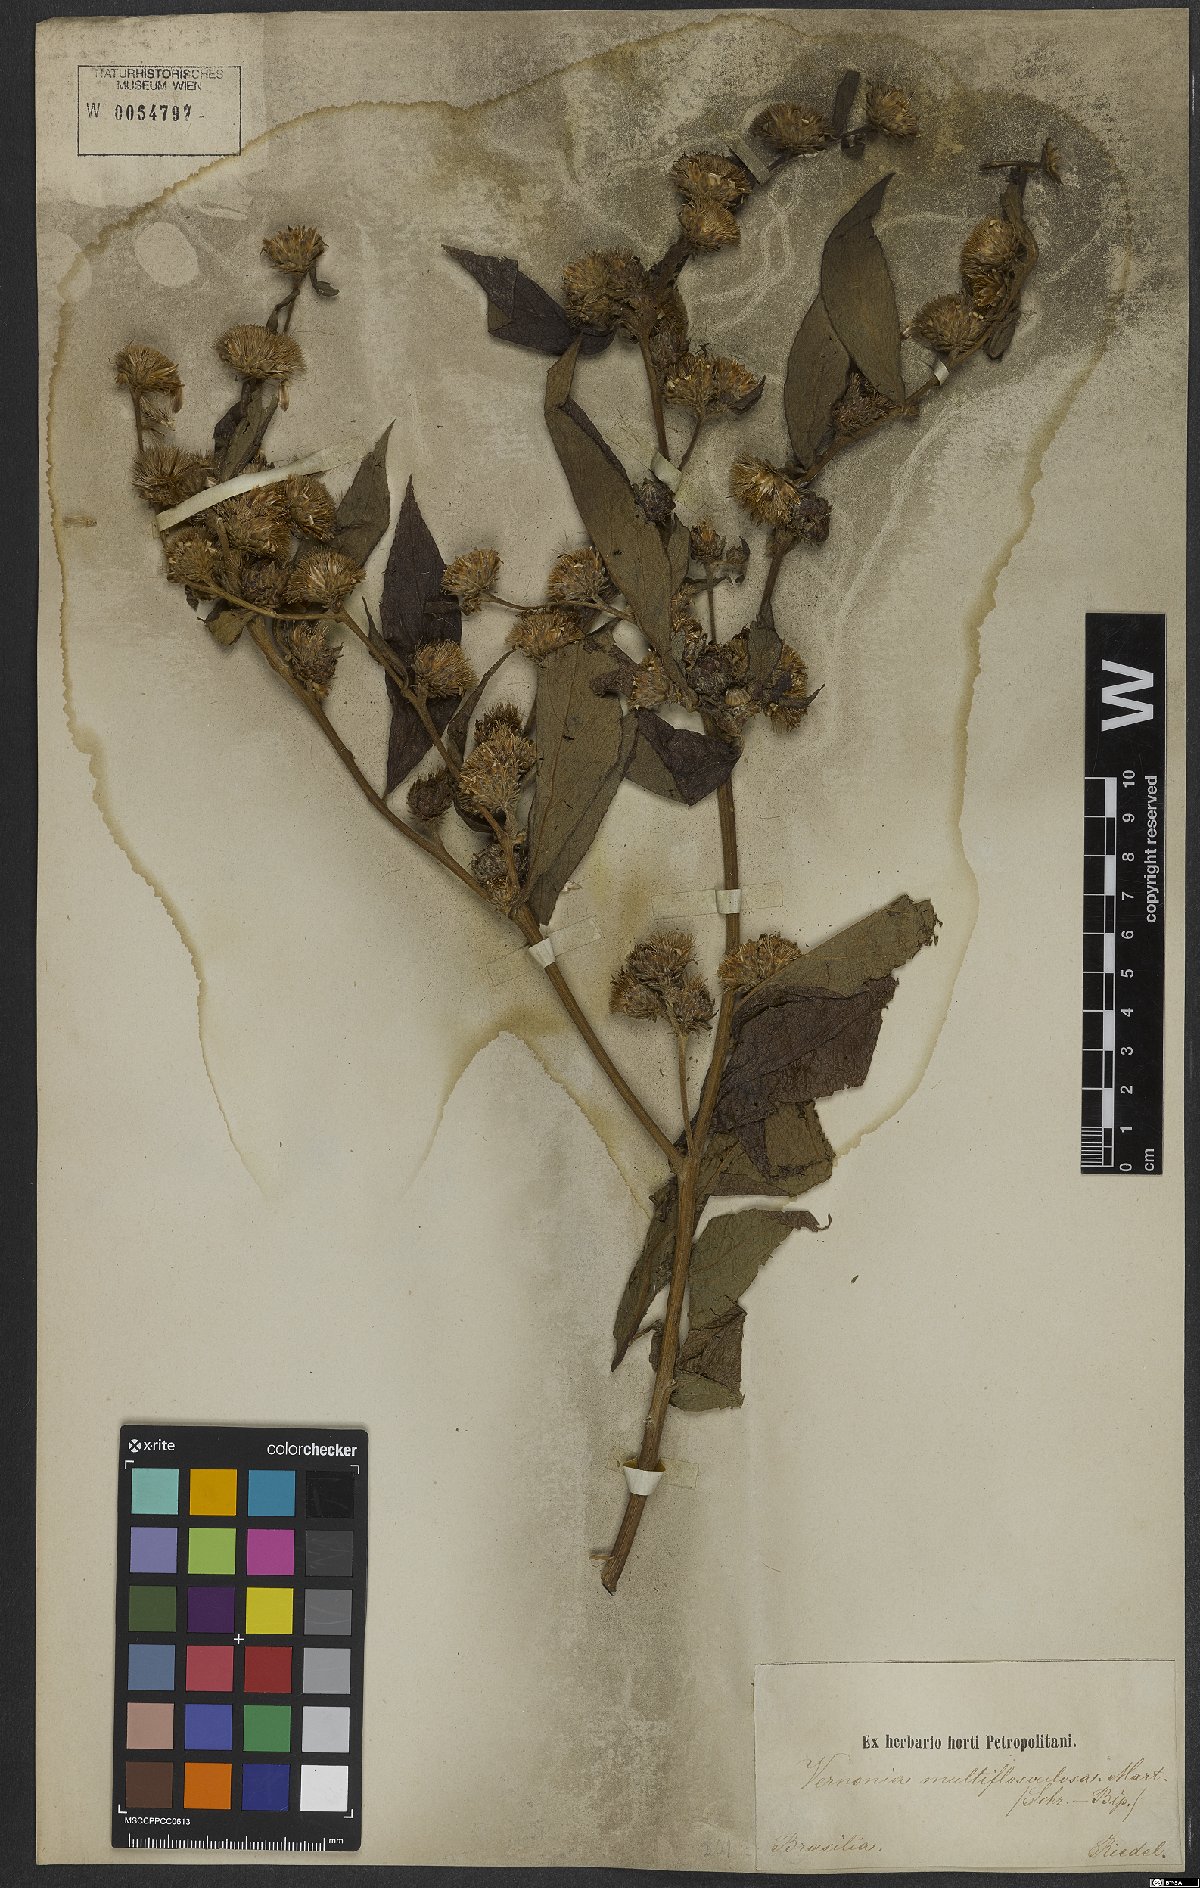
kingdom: Plantae
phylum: Tracheophyta
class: Magnoliopsida
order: Asterales
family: Asteraceae
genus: Gymnanthemum
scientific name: Gymnanthemum theophrastifolium
